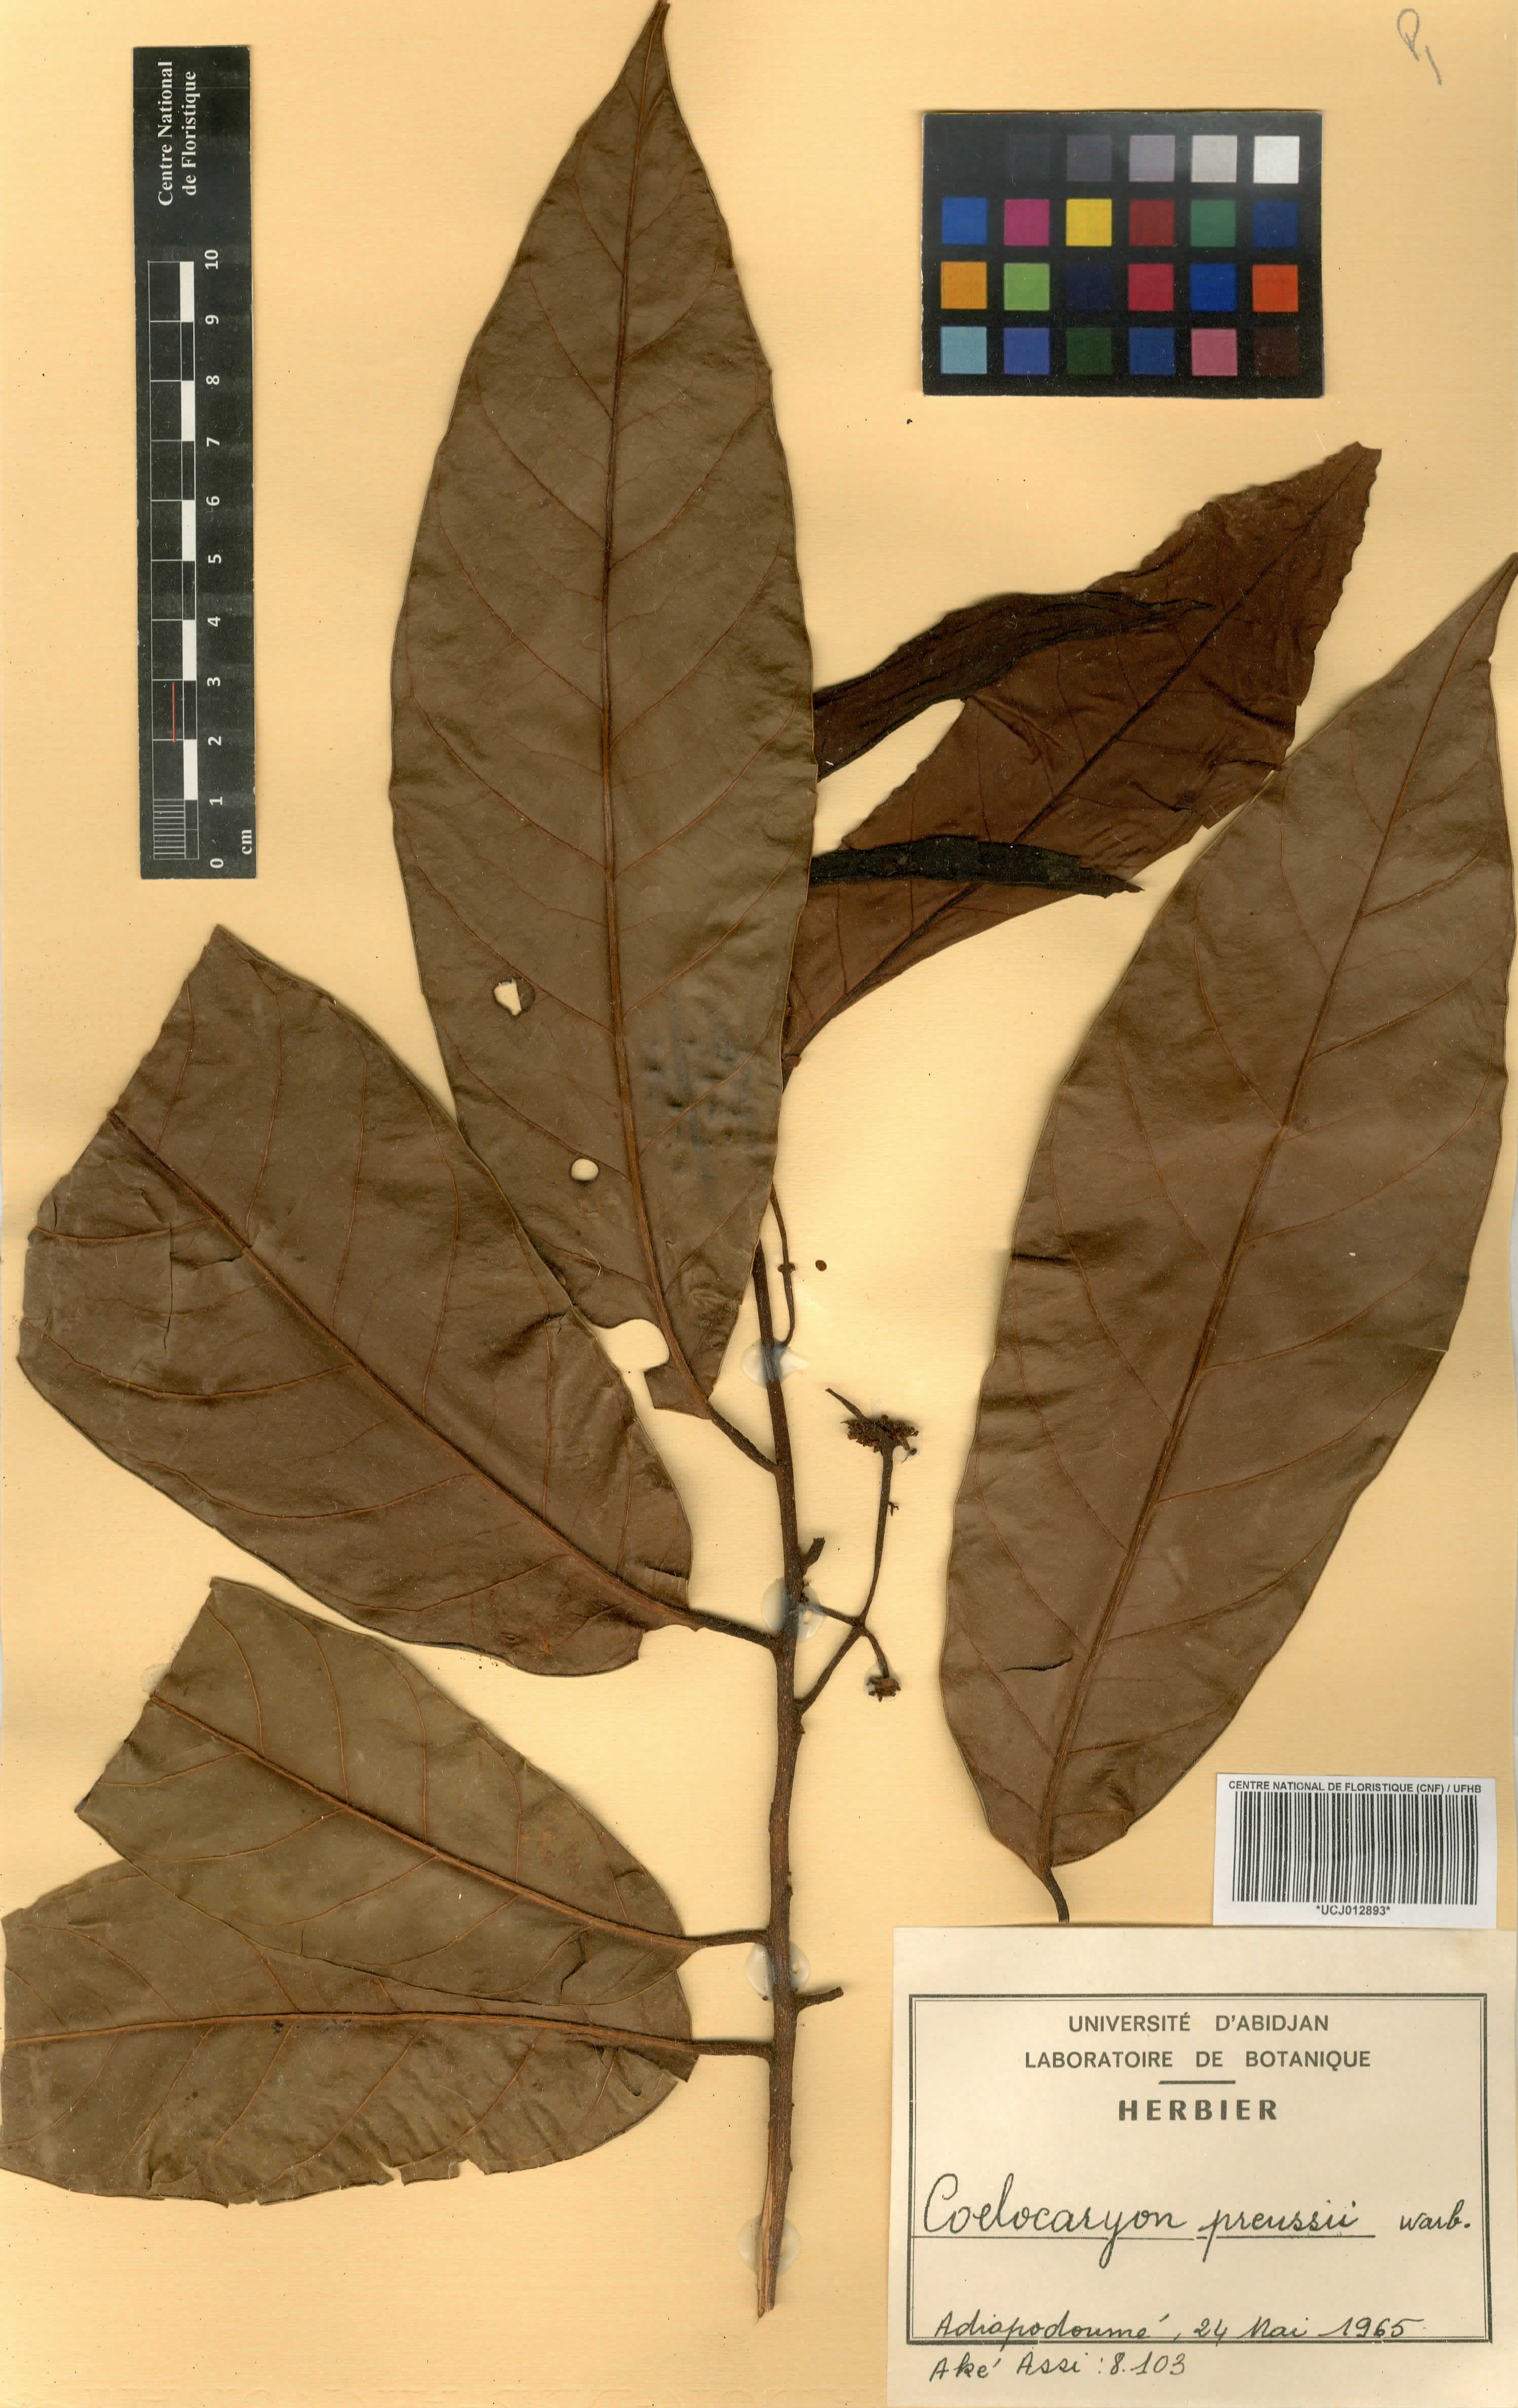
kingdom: Plantae
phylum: Tracheophyta
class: Magnoliopsida
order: Magnoliales
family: Myristicaceae
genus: Coelocaryon
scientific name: Coelocaryon preussii
